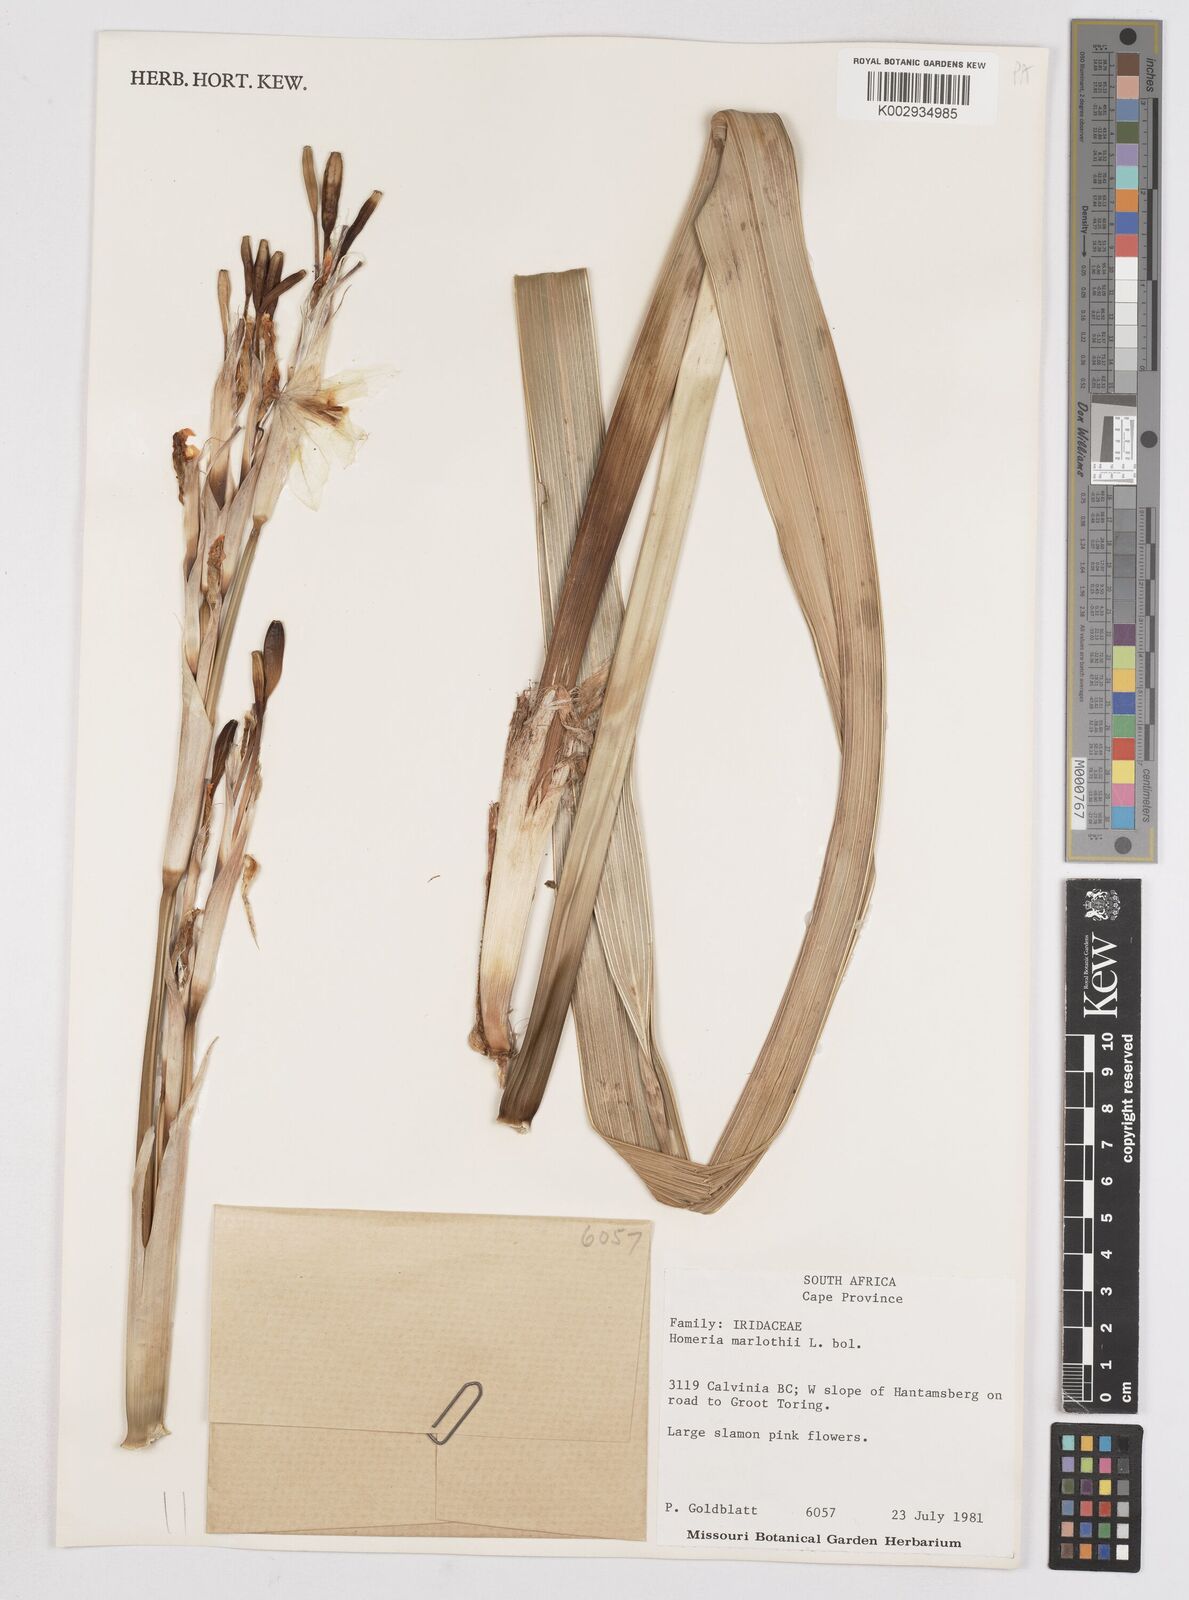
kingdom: Plantae
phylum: Tracheophyta
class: Liliopsida
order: Asparagales
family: Iridaceae
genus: Moraea
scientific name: Moraea marlothii
